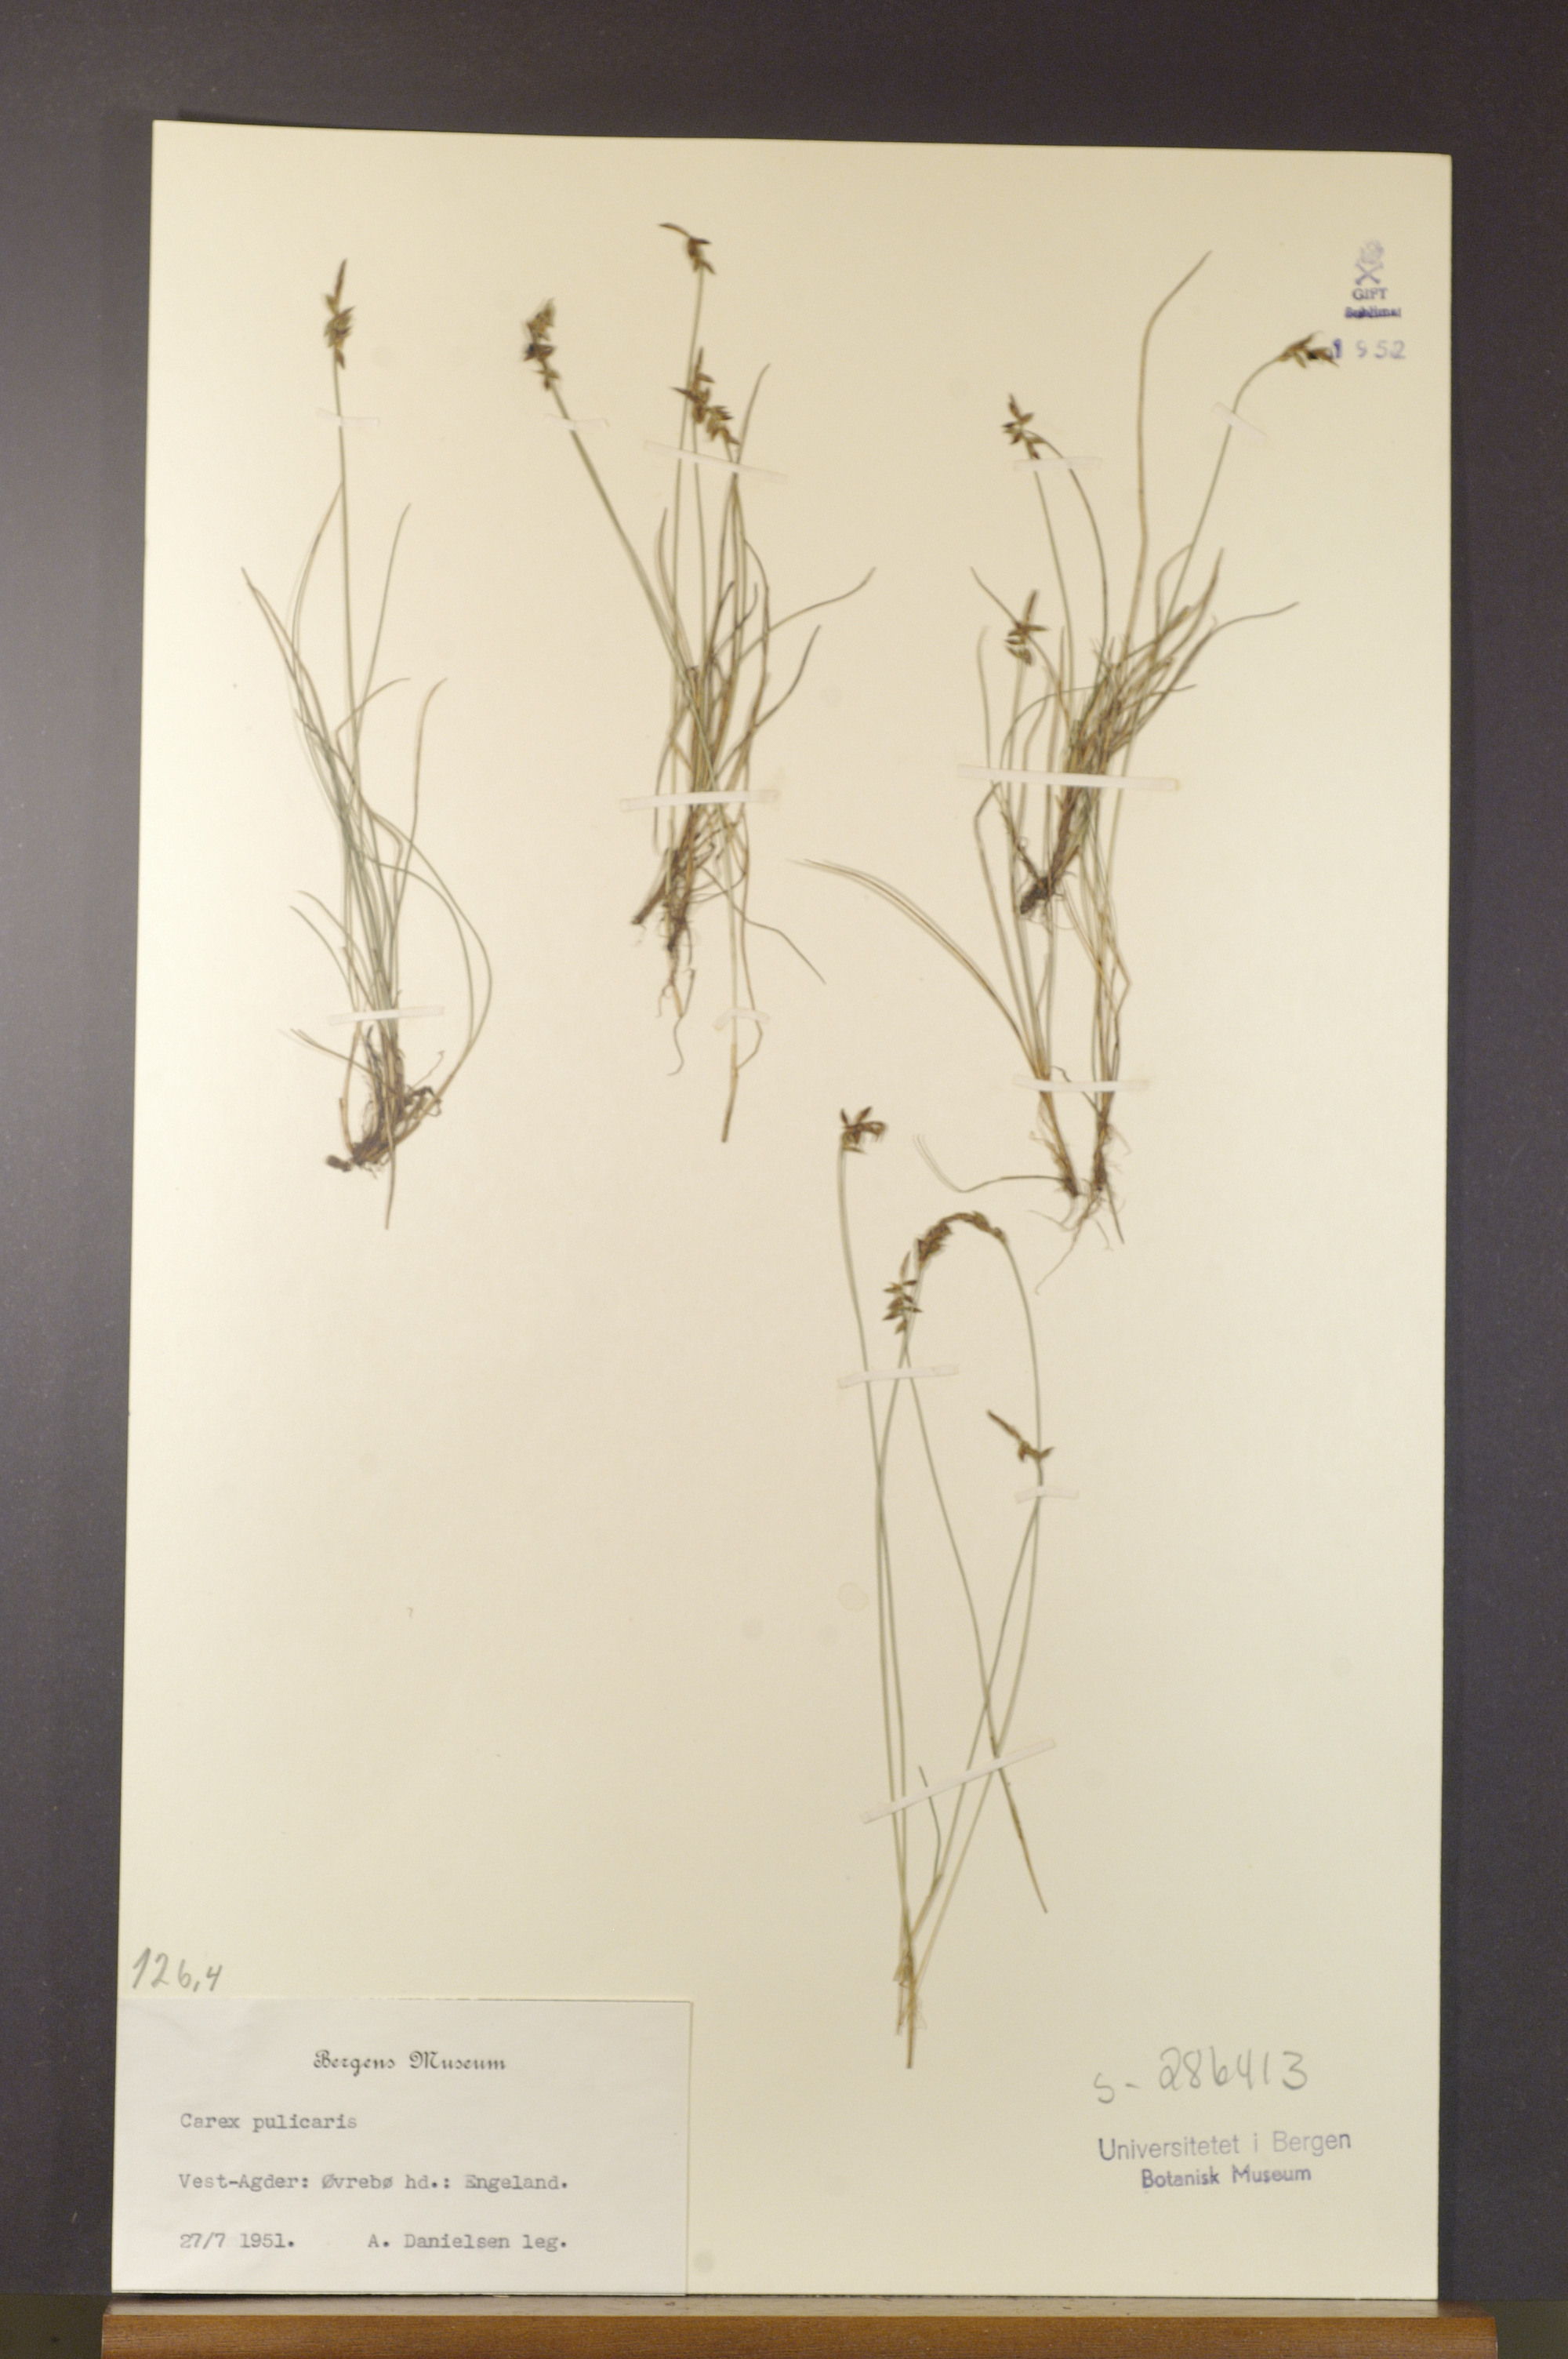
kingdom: Plantae
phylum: Tracheophyta
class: Liliopsida
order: Poales
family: Cyperaceae
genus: Carex
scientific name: Carex pulicaris
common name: Flea sedge
